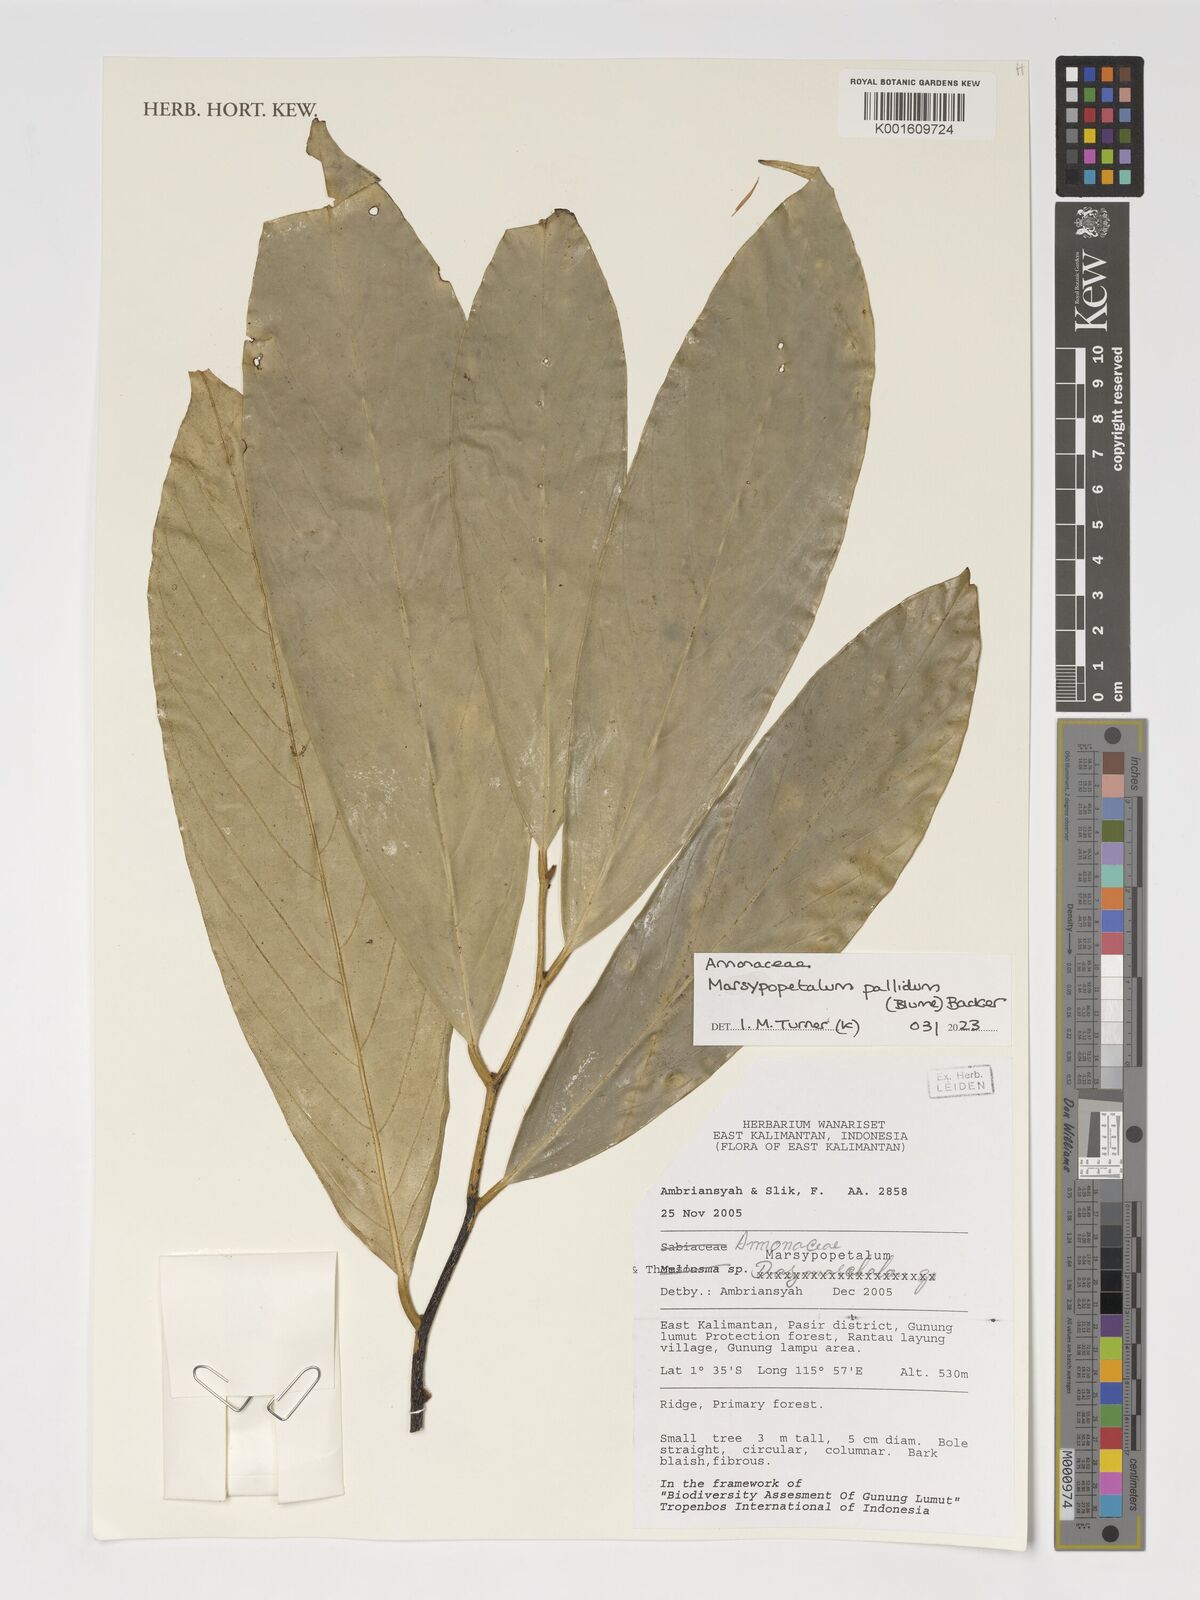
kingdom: Plantae
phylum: Tracheophyta
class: Magnoliopsida
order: Magnoliales
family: Annonaceae
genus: Marsypopetalum
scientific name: Marsypopetalum pallidum
